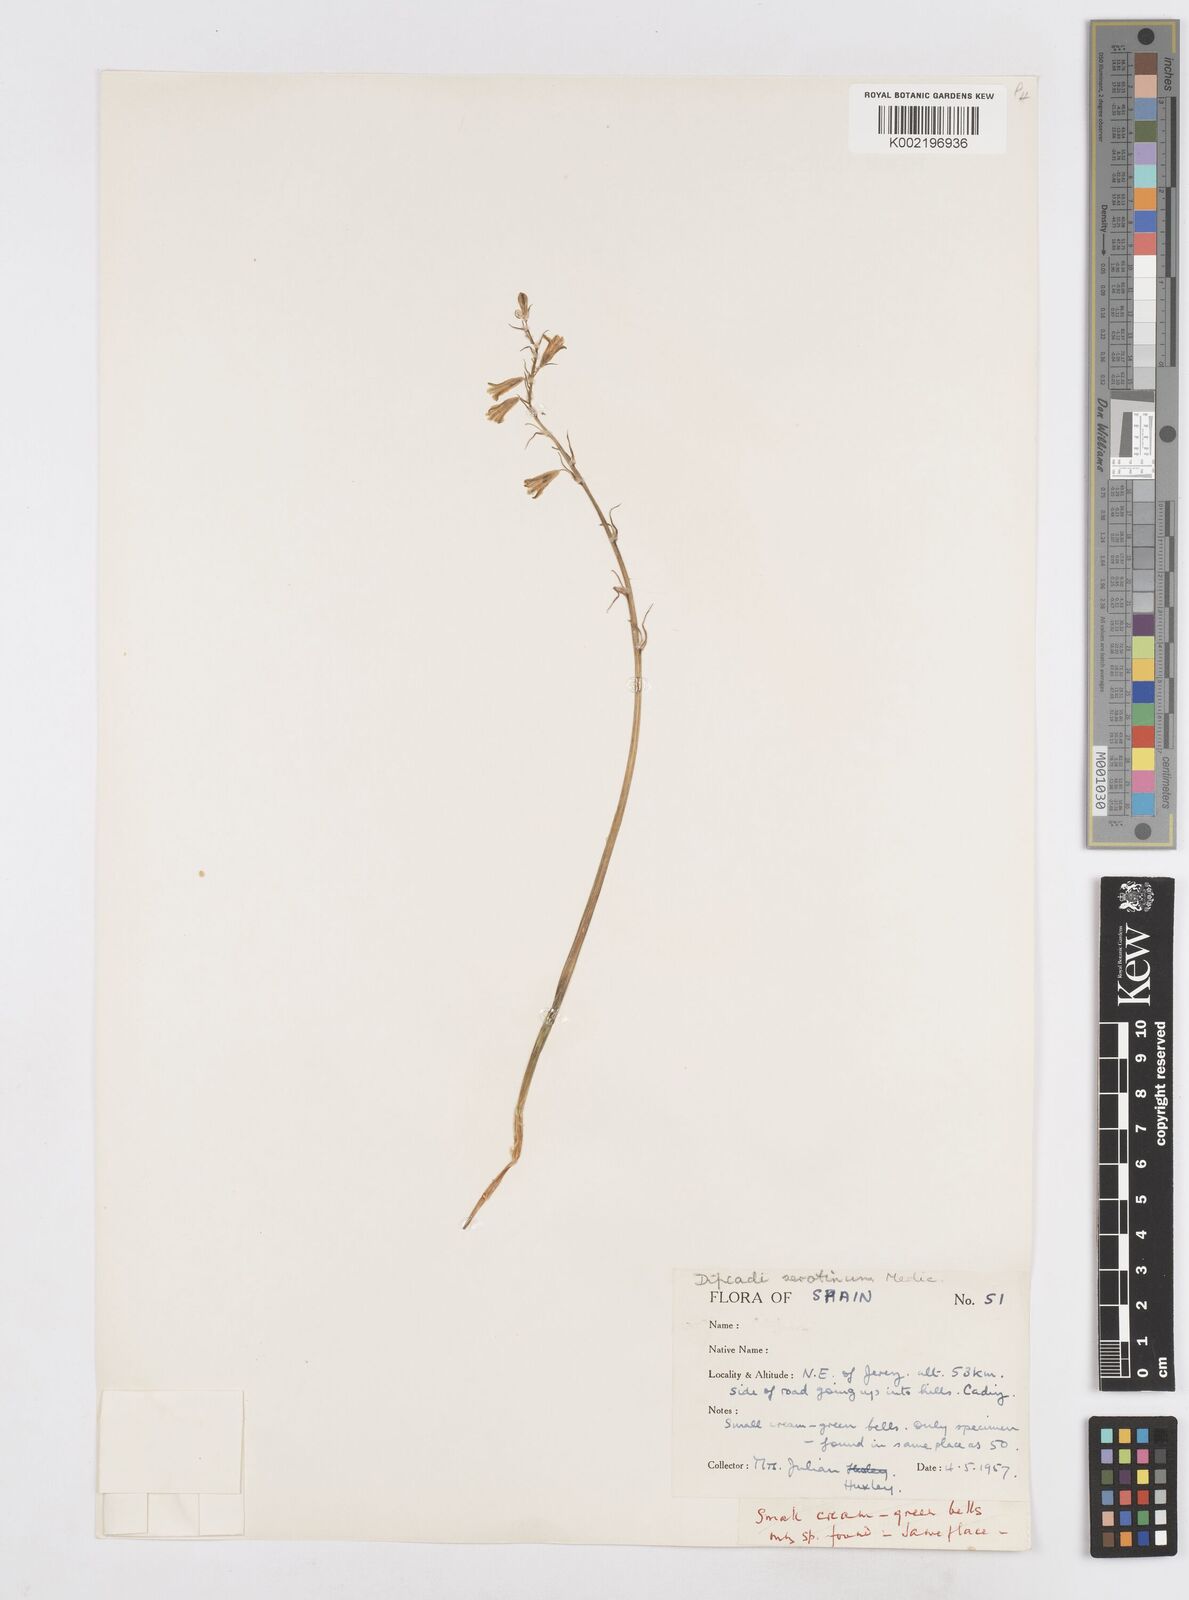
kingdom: Plantae
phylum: Tracheophyta
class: Liliopsida
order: Asparagales
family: Asparagaceae
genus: Dipcadi
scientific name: Dipcadi serotinum
